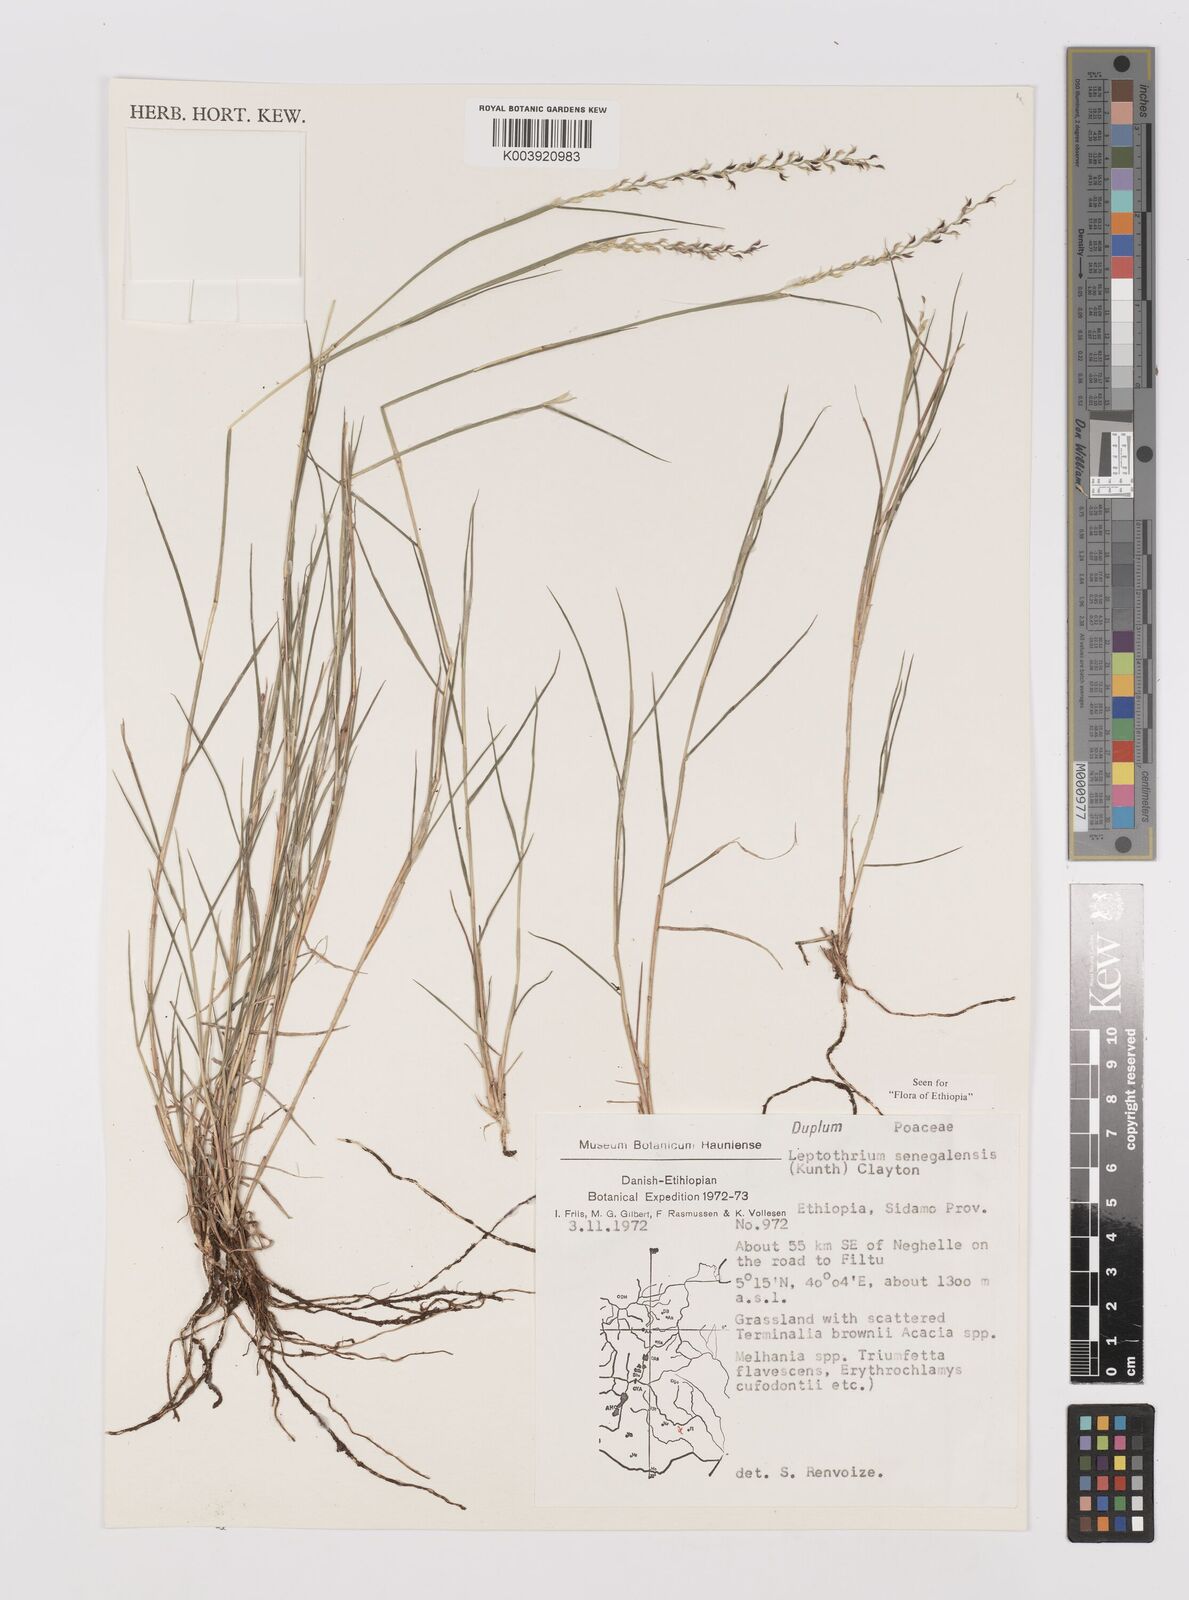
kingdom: Plantae
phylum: Tracheophyta
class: Liliopsida
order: Poales
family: Poaceae
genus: Leptothrium
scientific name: Leptothrium senegalense
